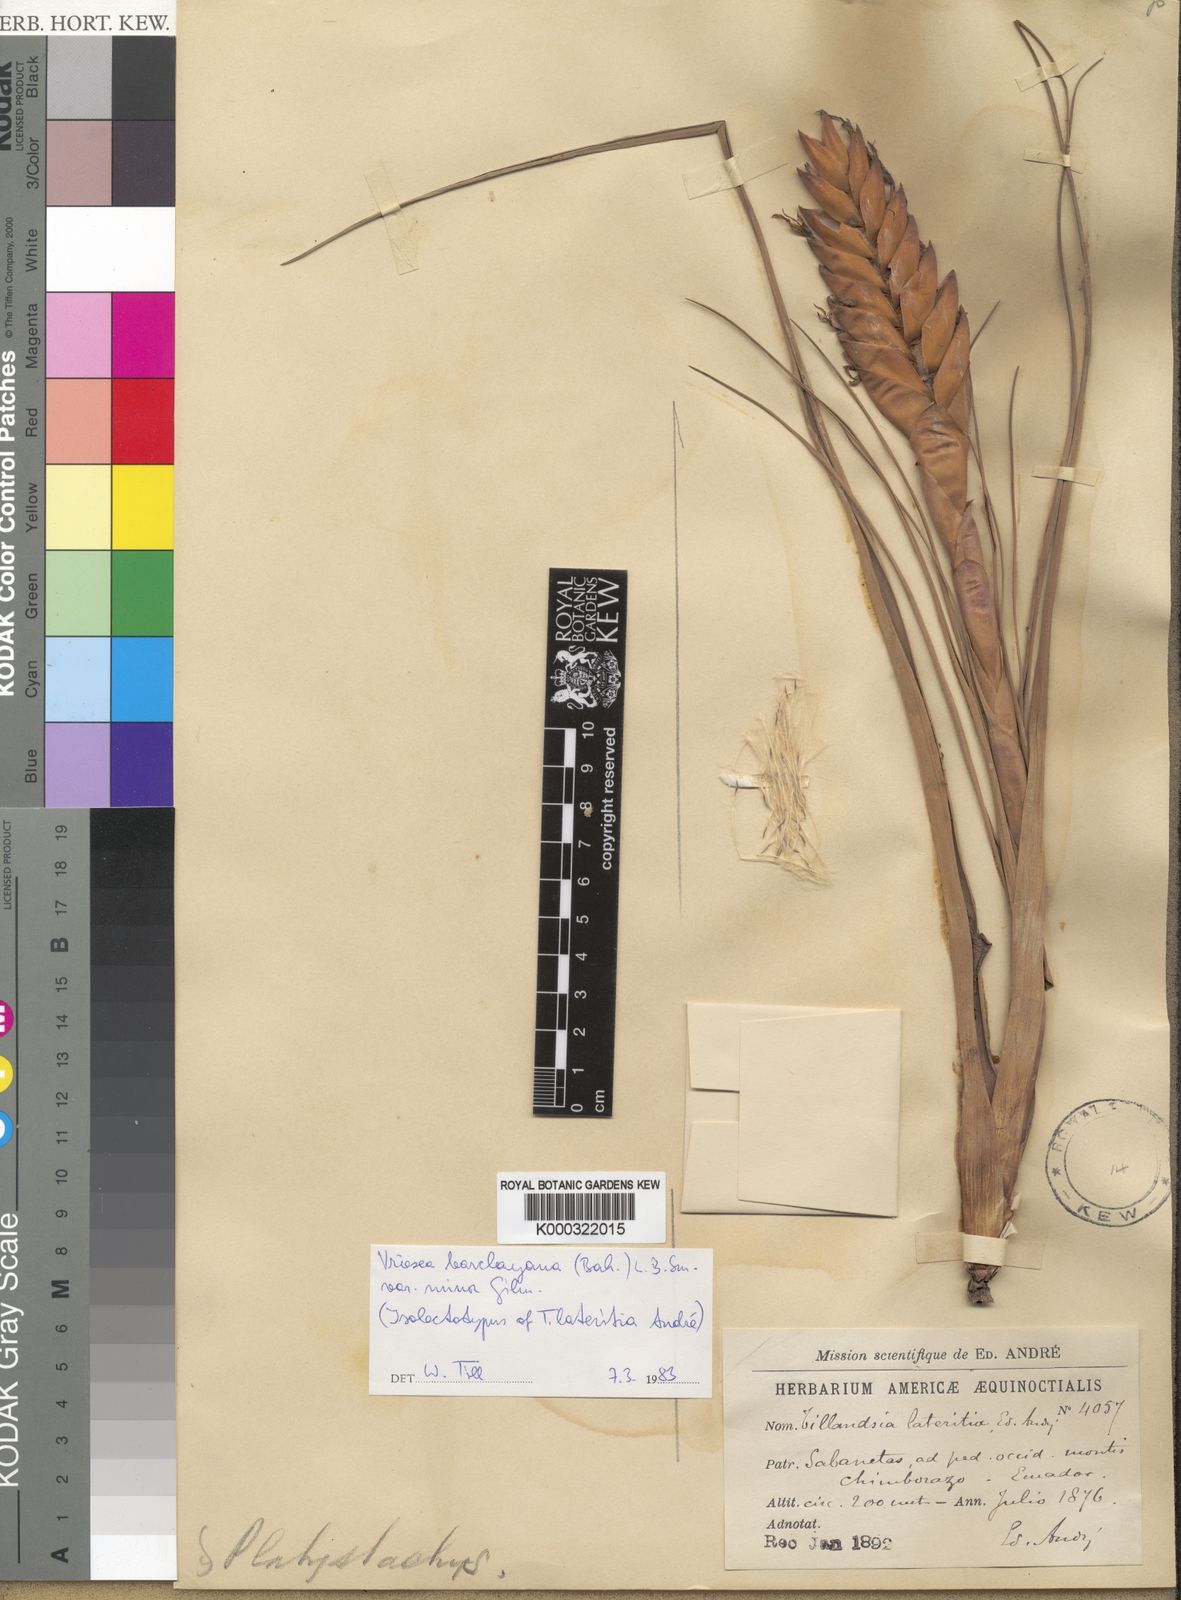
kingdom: Plantae
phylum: Tracheophyta
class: Liliopsida
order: Poales
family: Bromeliaceae
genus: Tillandsia
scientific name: Tillandsia barclayana
